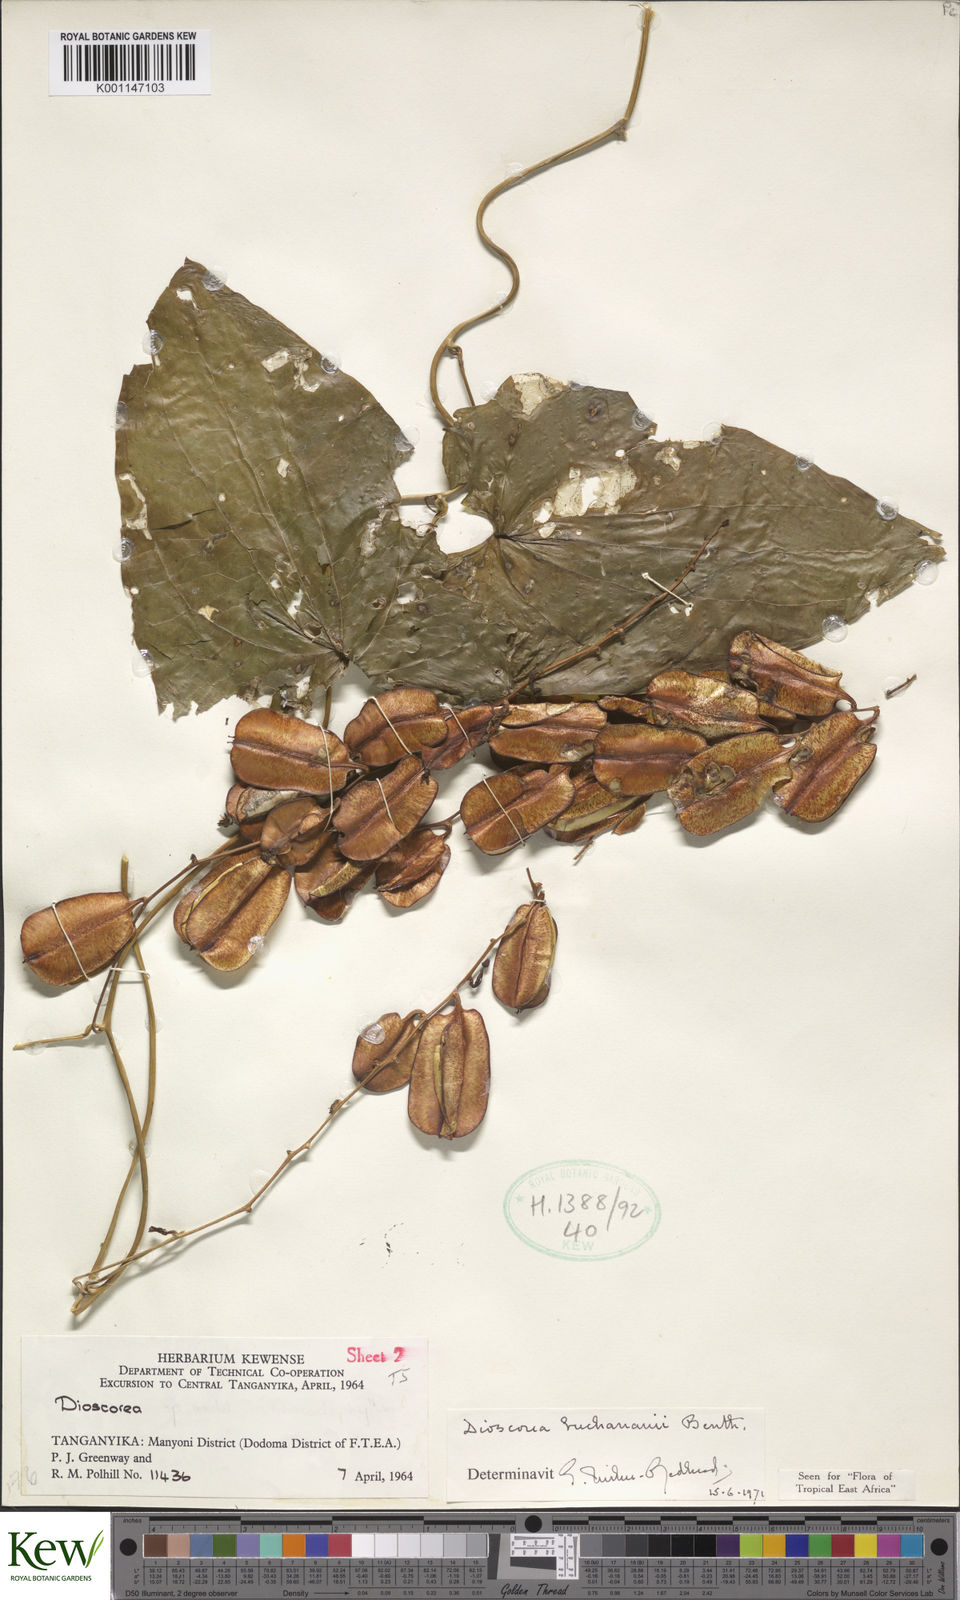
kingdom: Plantae
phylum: Tracheophyta
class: Liliopsida
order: Dioscoreales
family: Dioscoreaceae
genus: Dioscorea
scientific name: Dioscorea buchananii
